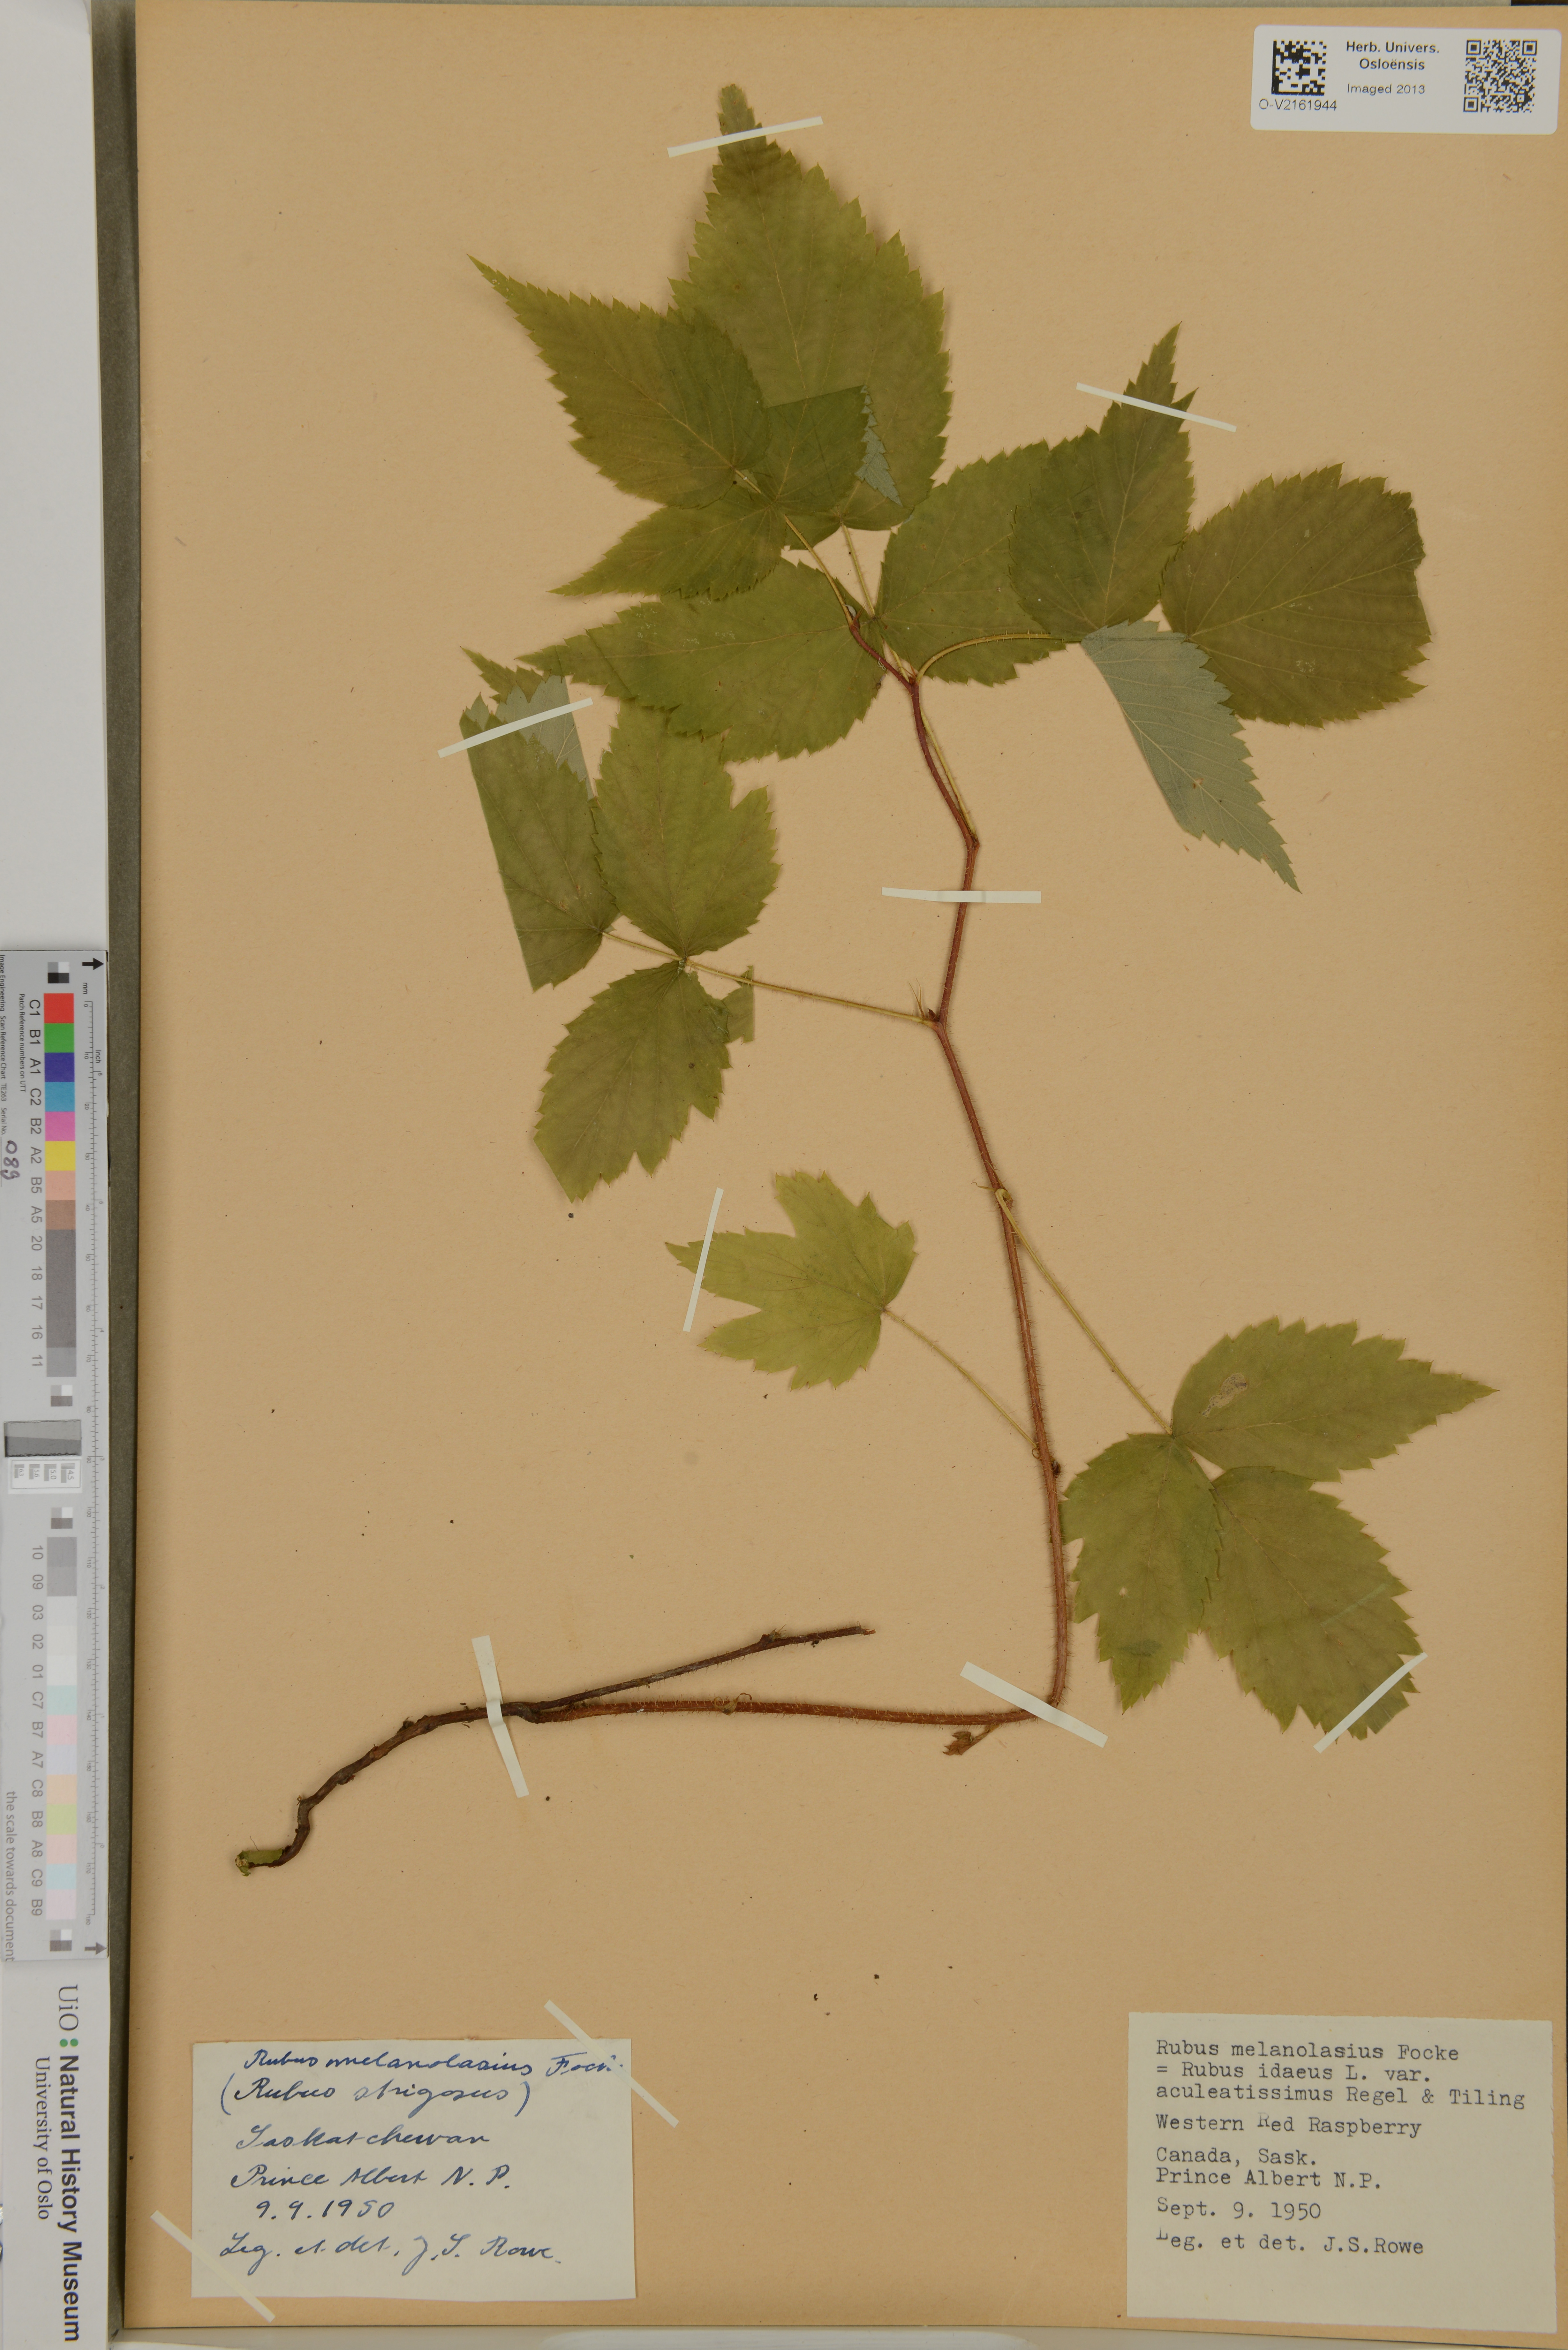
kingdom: Plantae
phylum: Tracheophyta
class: Magnoliopsida
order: Rosales
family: Rosaceae
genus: Rubus
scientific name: Rubus idaeus
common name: Raspberry
